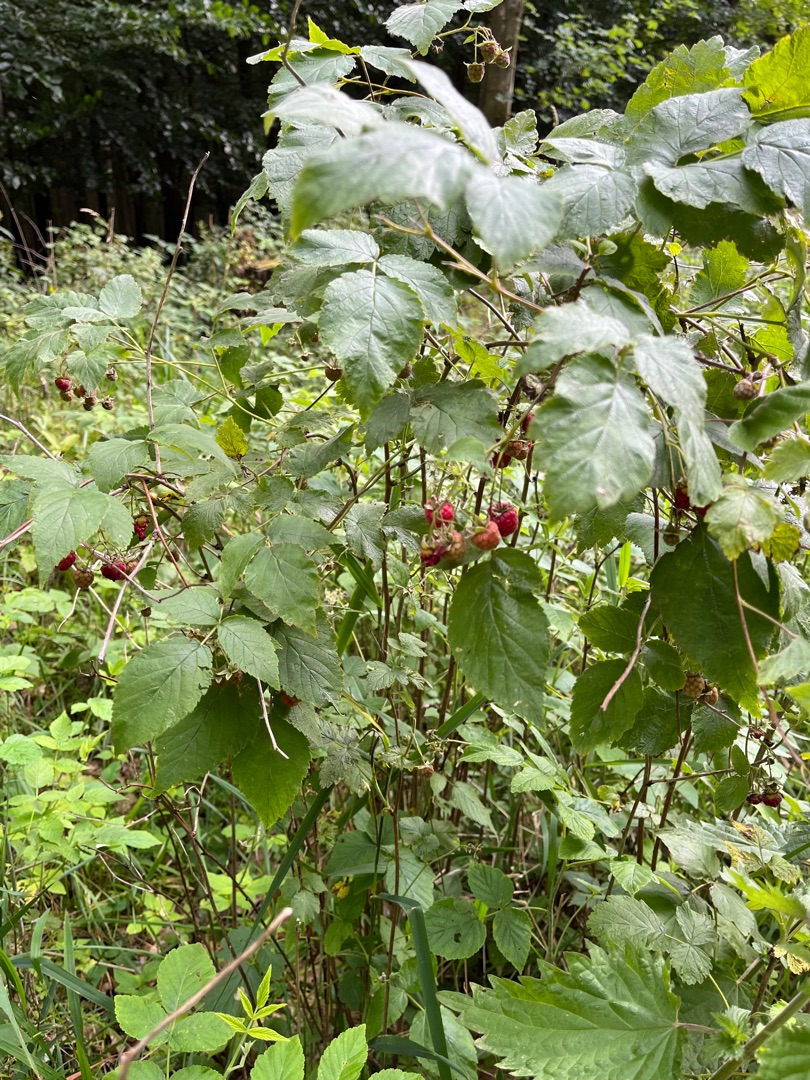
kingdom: Plantae
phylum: Tracheophyta
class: Magnoliopsida
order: Rosales
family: Rosaceae
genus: Rubus
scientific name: Rubus idaeus
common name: Hindbær
